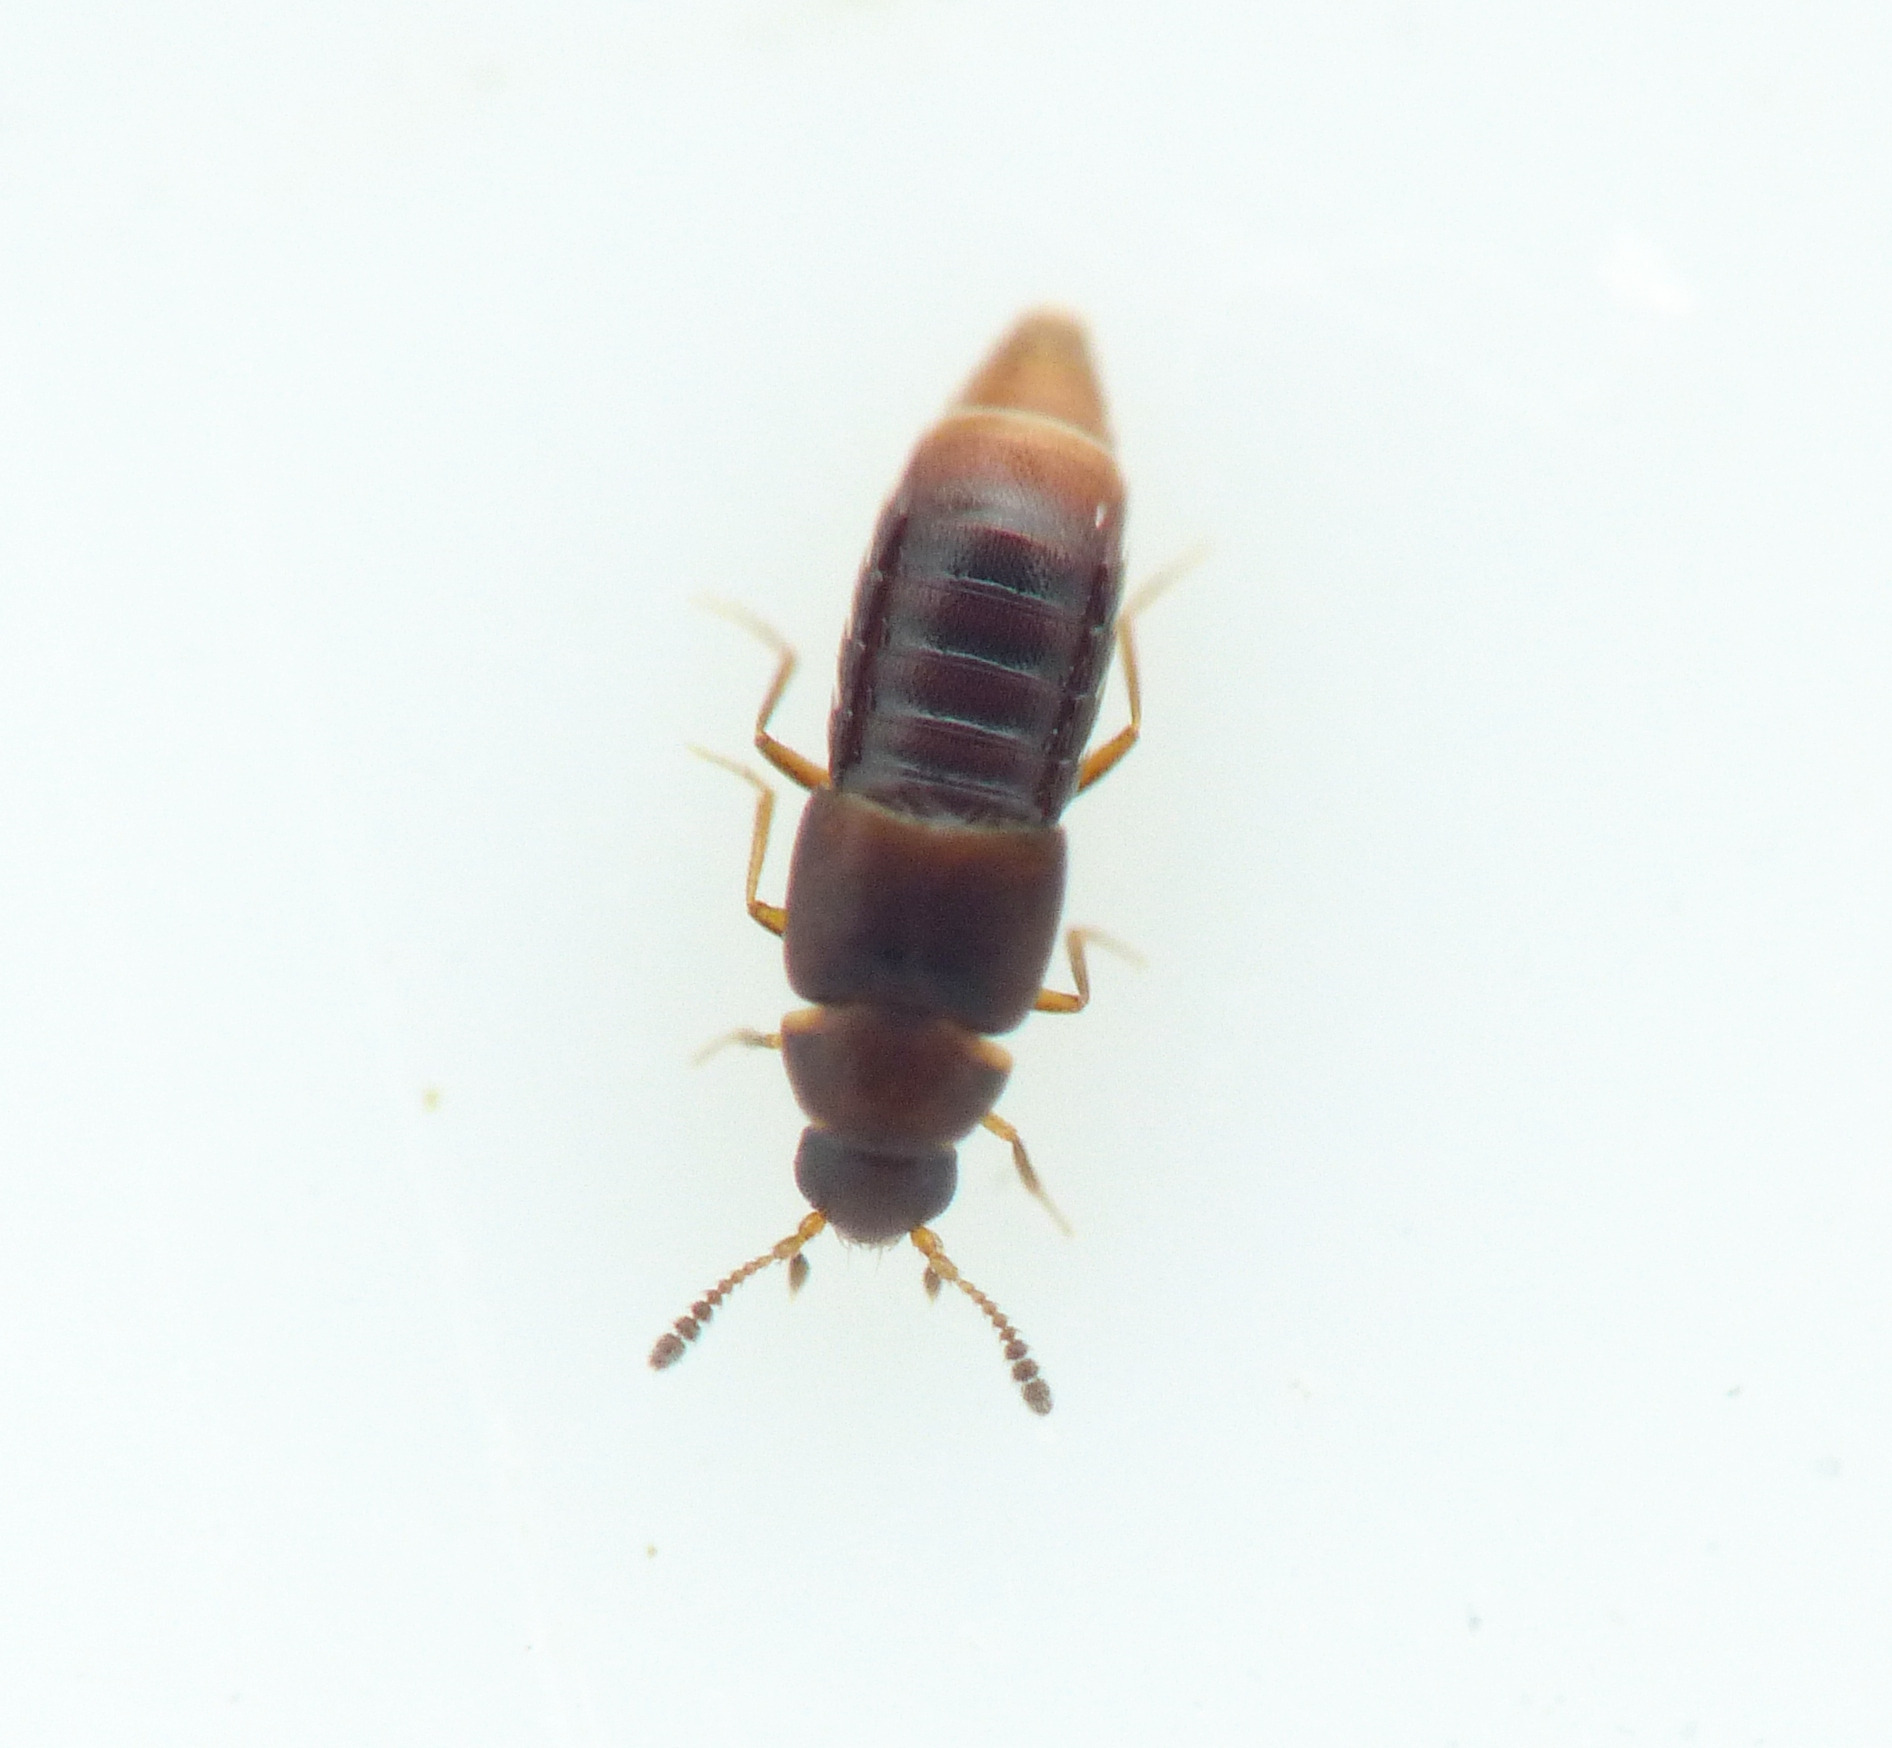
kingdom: Animalia
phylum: Arthropoda
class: Insecta
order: Coleoptera
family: Staphylinidae
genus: Oligota
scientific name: Oligota parva
